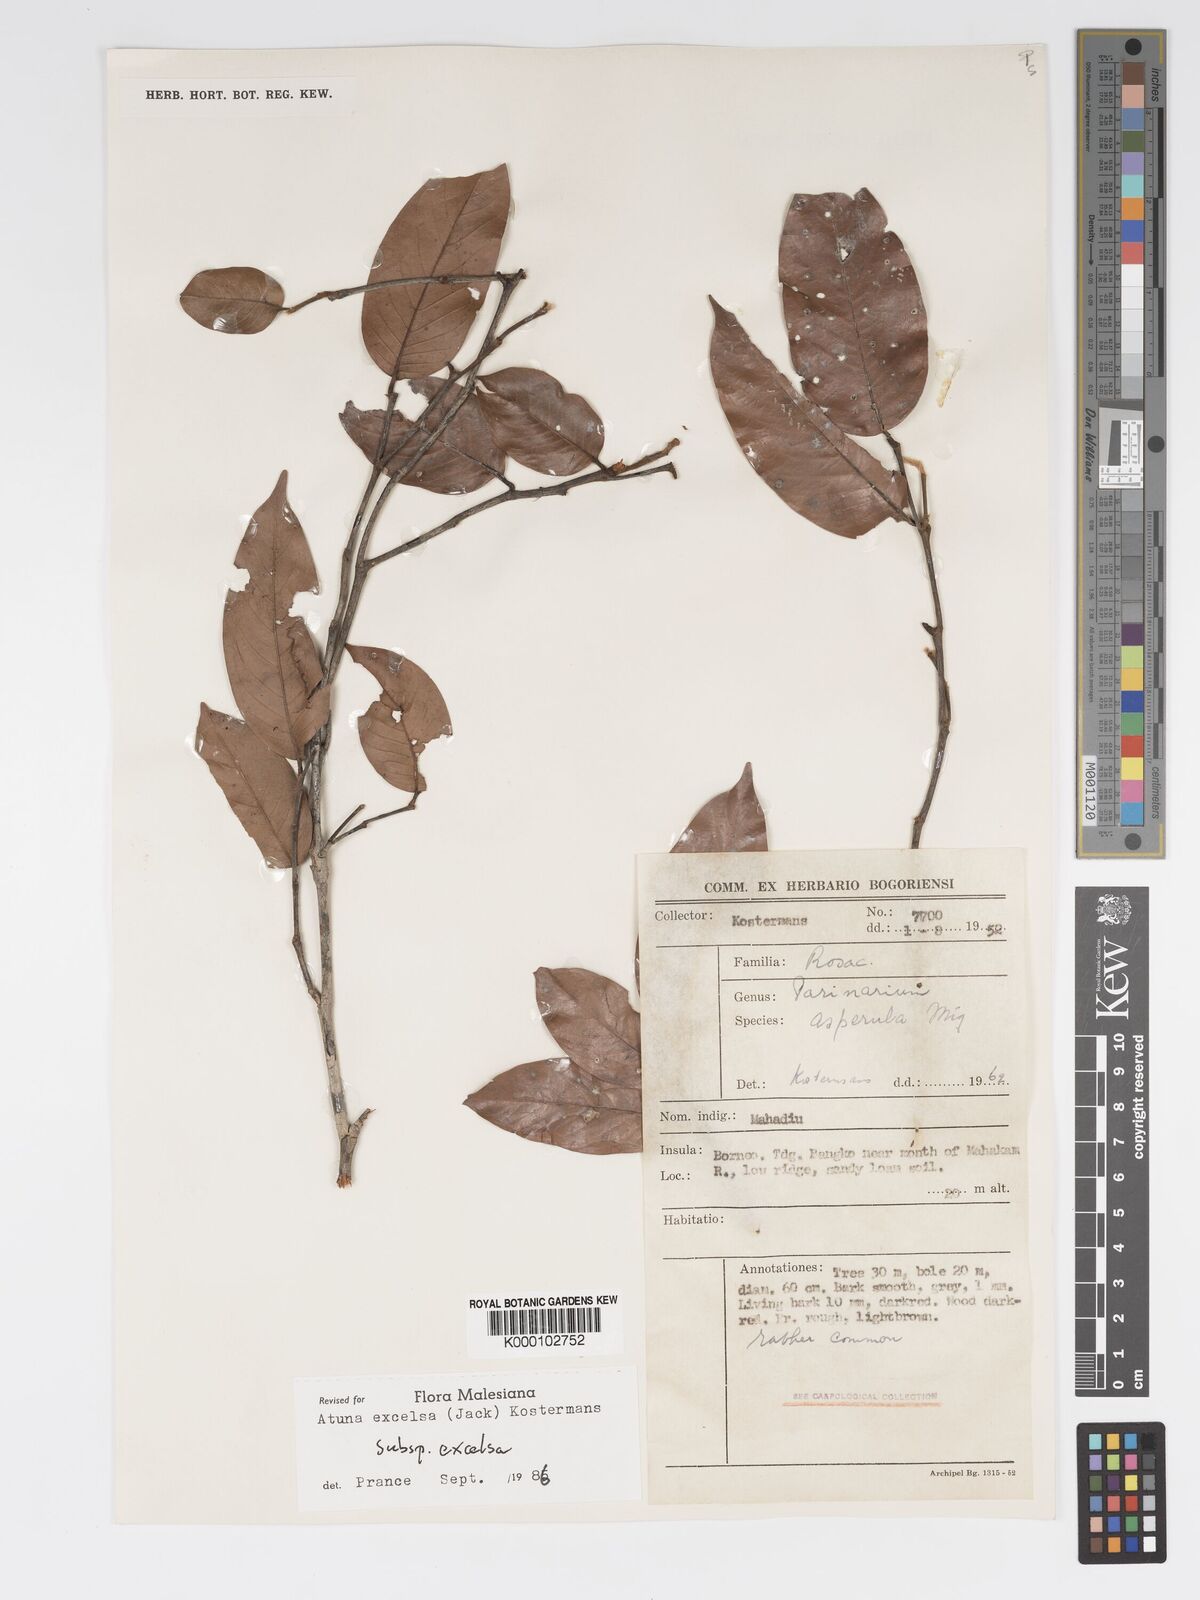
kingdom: Plantae
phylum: Tracheophyta
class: Magnoliopsida
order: Malpighiales
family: Chrysobalanaceae
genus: Atuna
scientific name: Atuna excelsa
